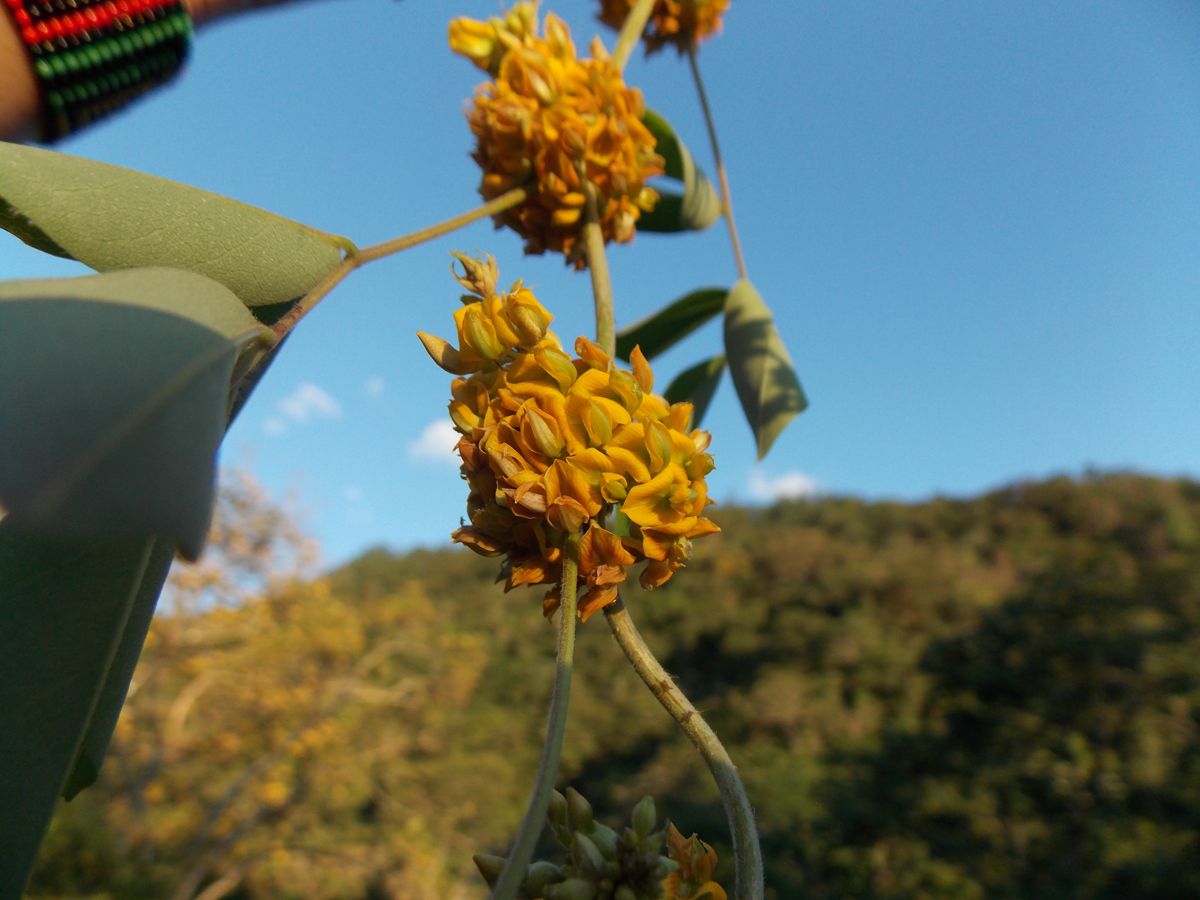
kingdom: Plantae
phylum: Tracheophyta
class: Magnoliopsida
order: Fabales
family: Fabaceae
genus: Nissolia
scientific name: Nissolia fruticosa
